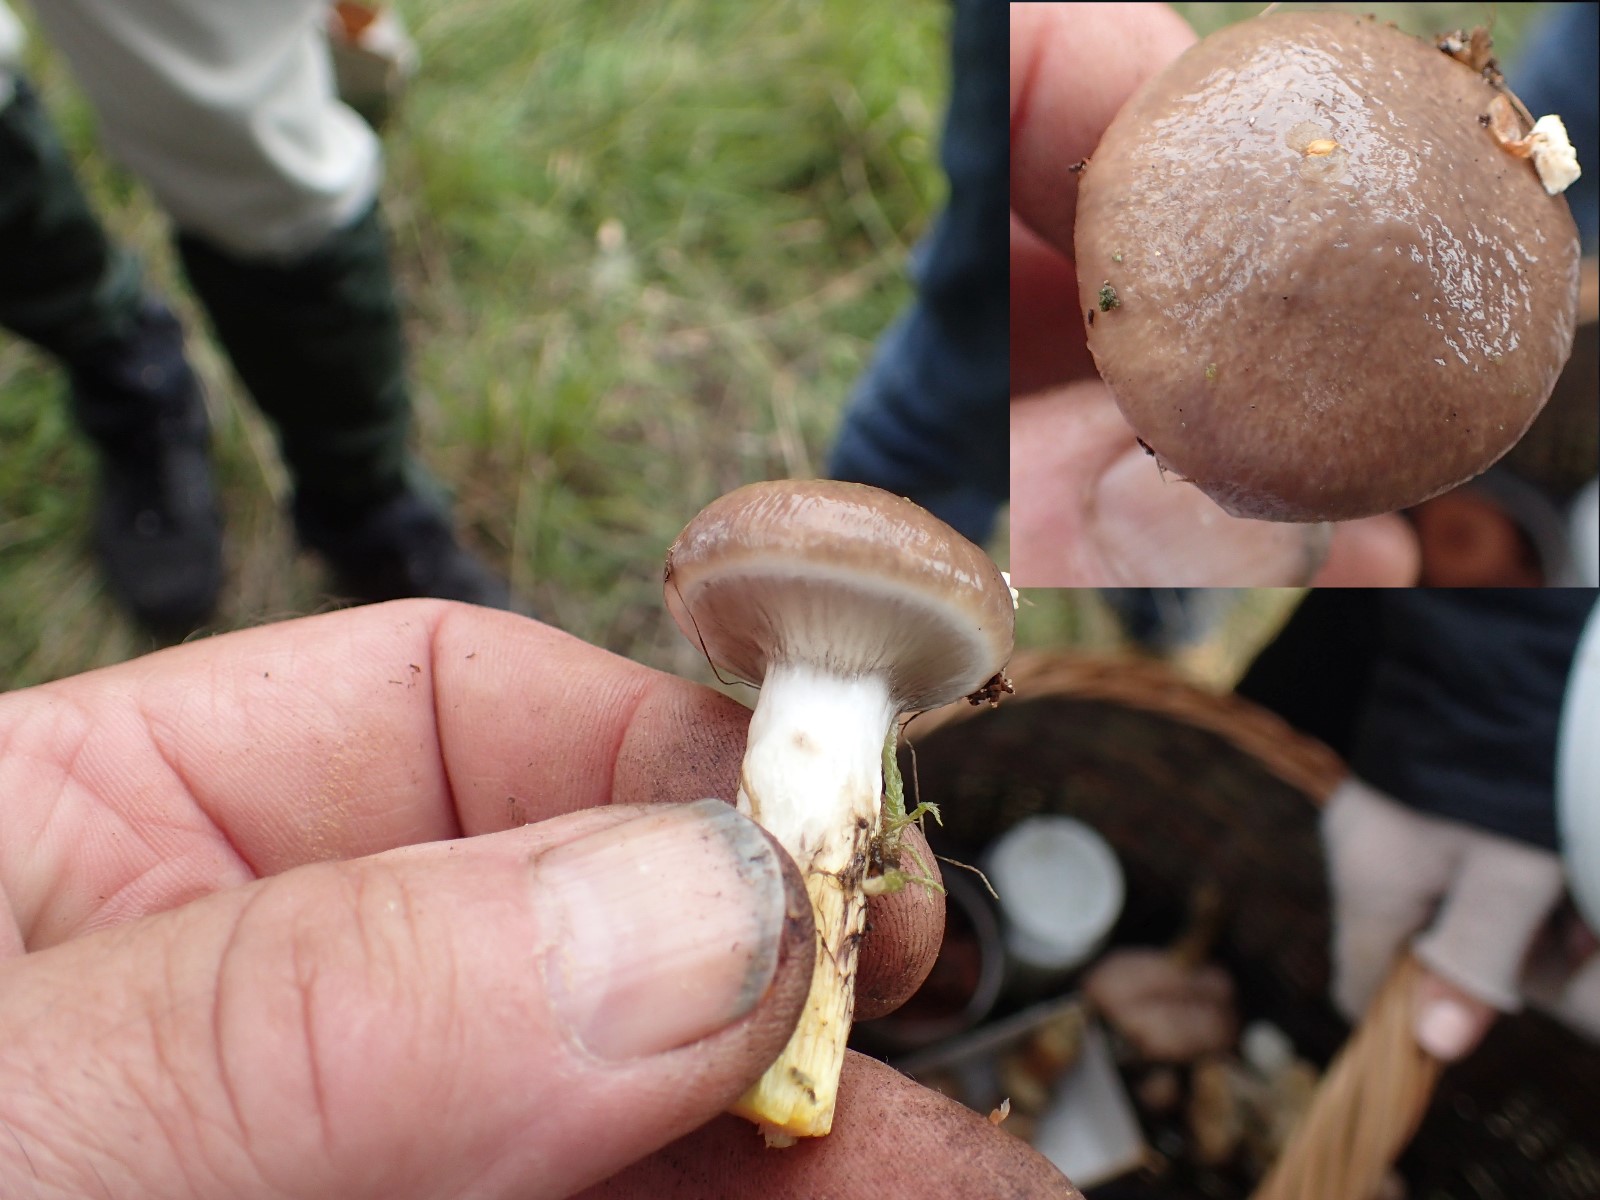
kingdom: Fungi
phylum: Basidiomycota
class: Agaricomycetes
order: Boletales
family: Gomphidiaceae
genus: Gomphidius
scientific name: Gomphidius glutinosus
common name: grå slimslør
